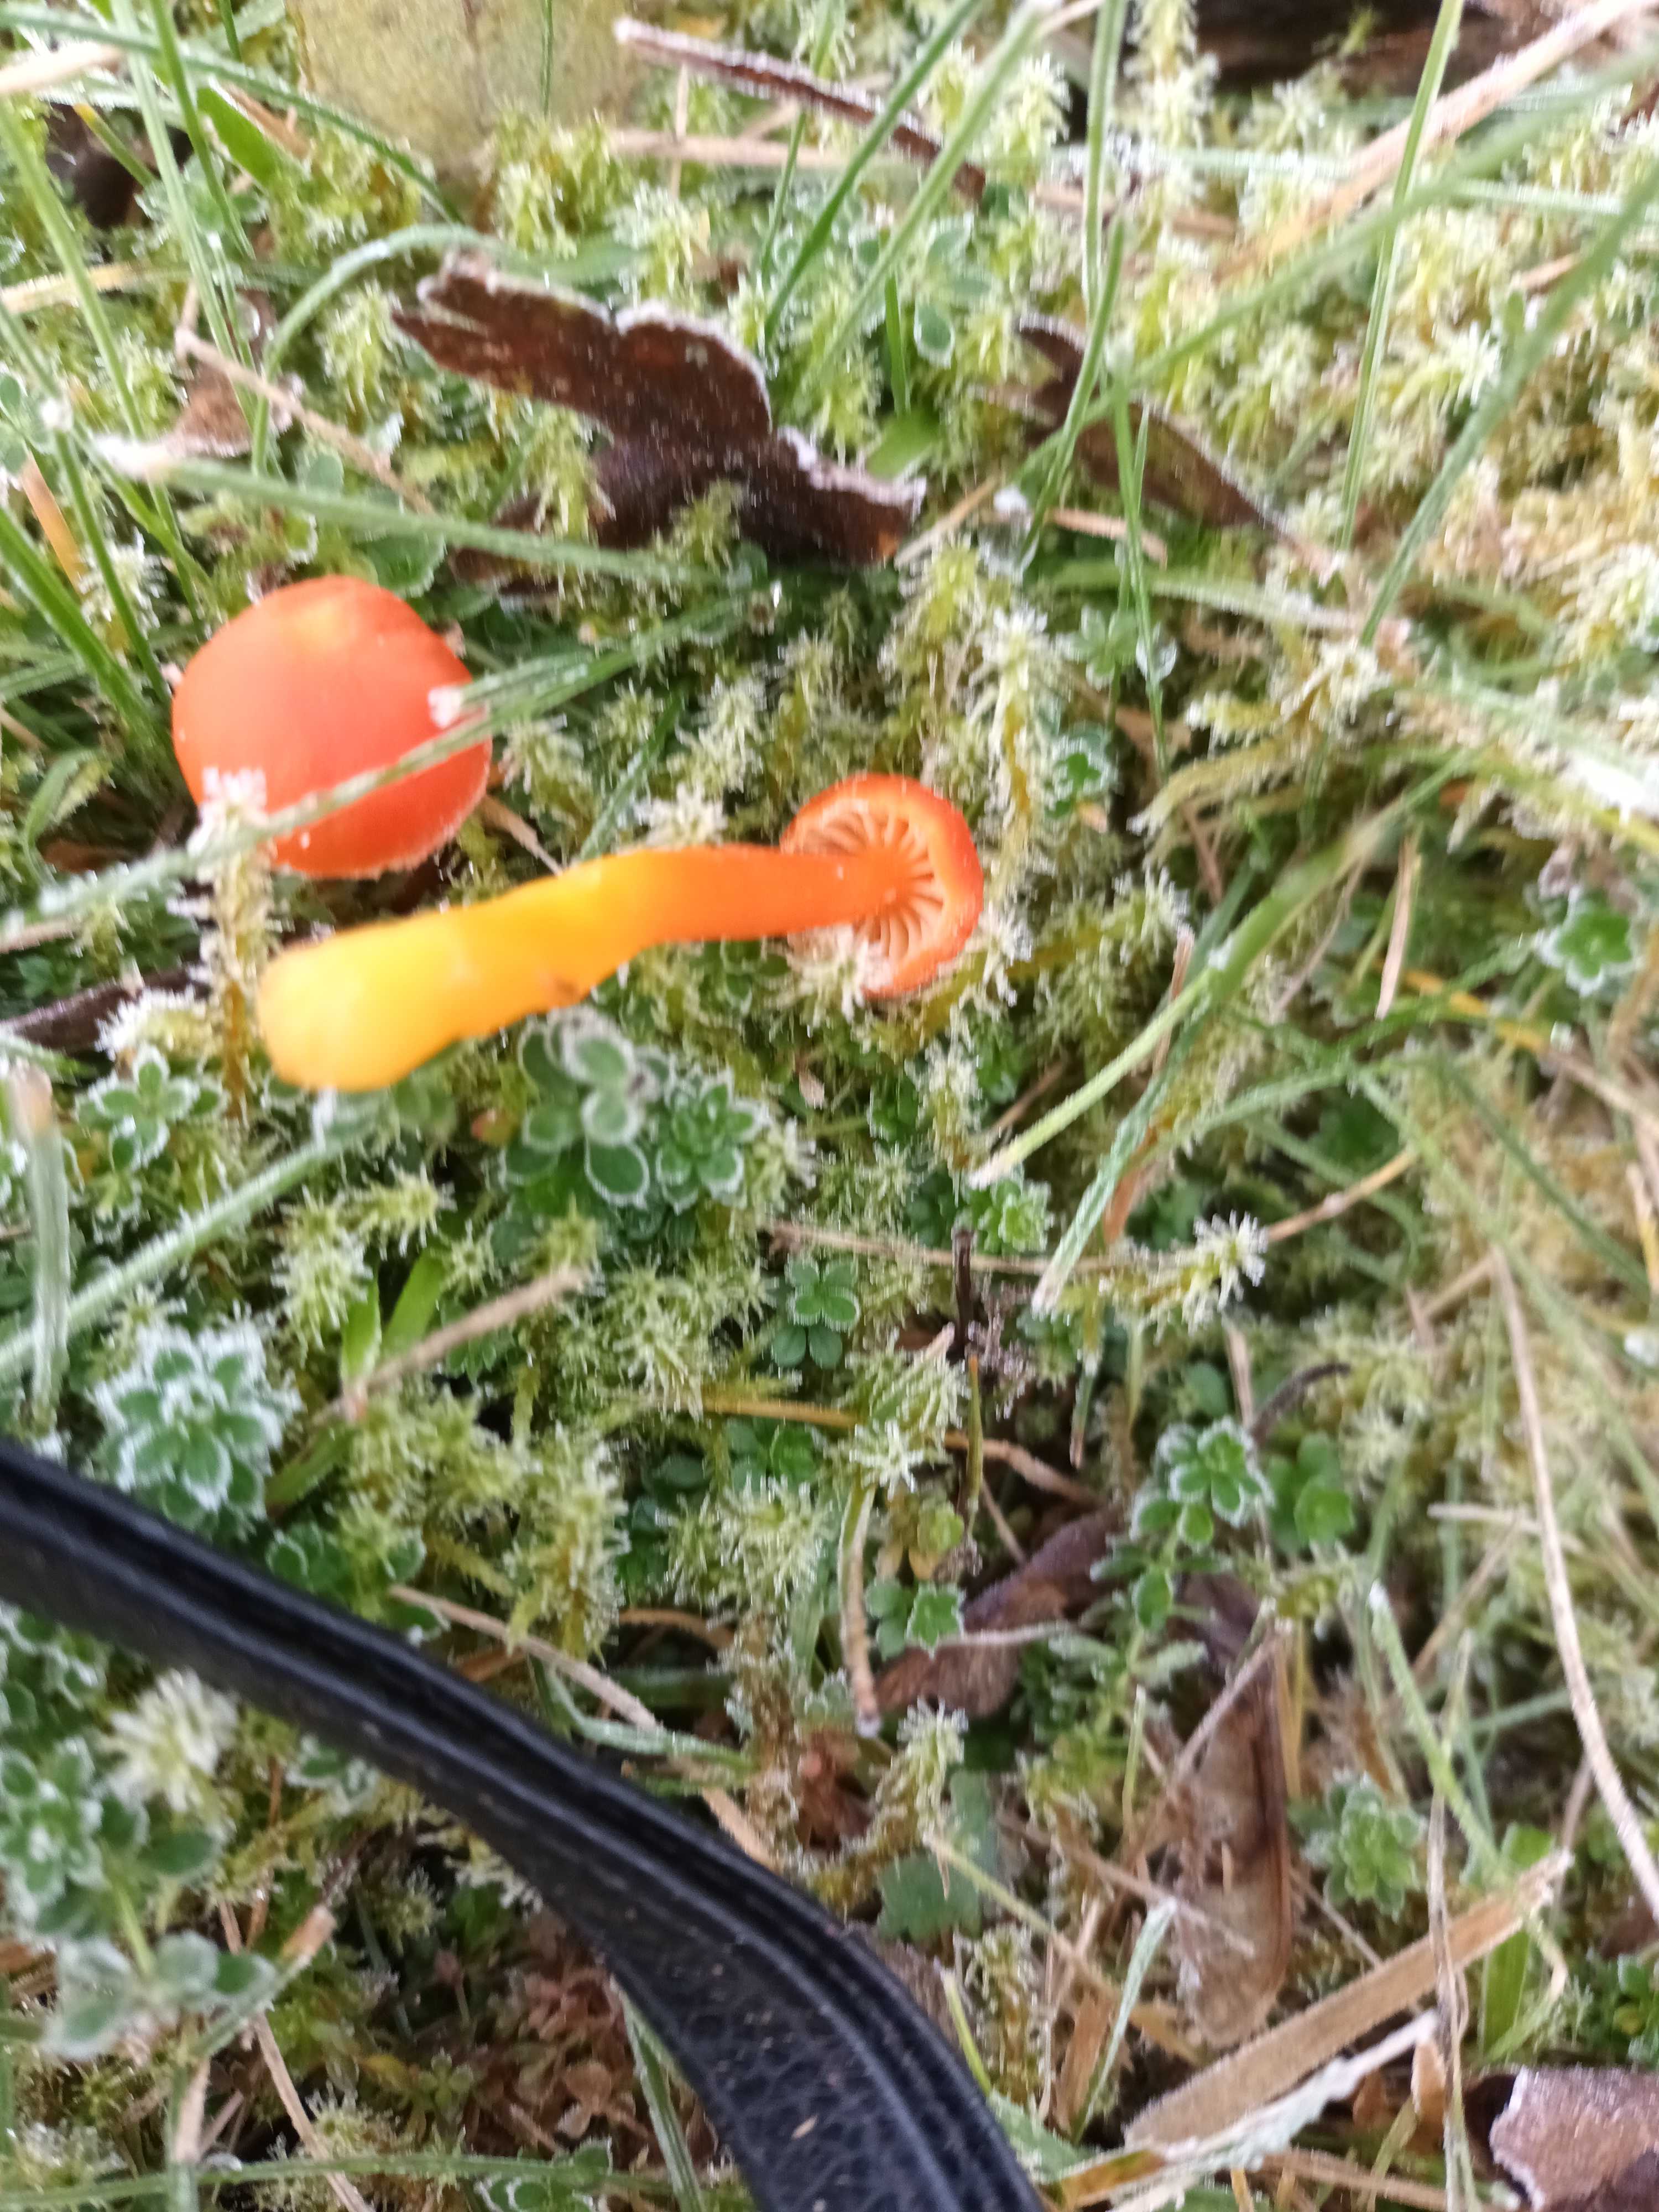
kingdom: Fungi
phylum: Basidiomycota
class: Agaricomycetes
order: Agaricales
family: Hygrophoraceae
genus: Hygrocybe
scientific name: Hygrocybe
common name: vokshat
